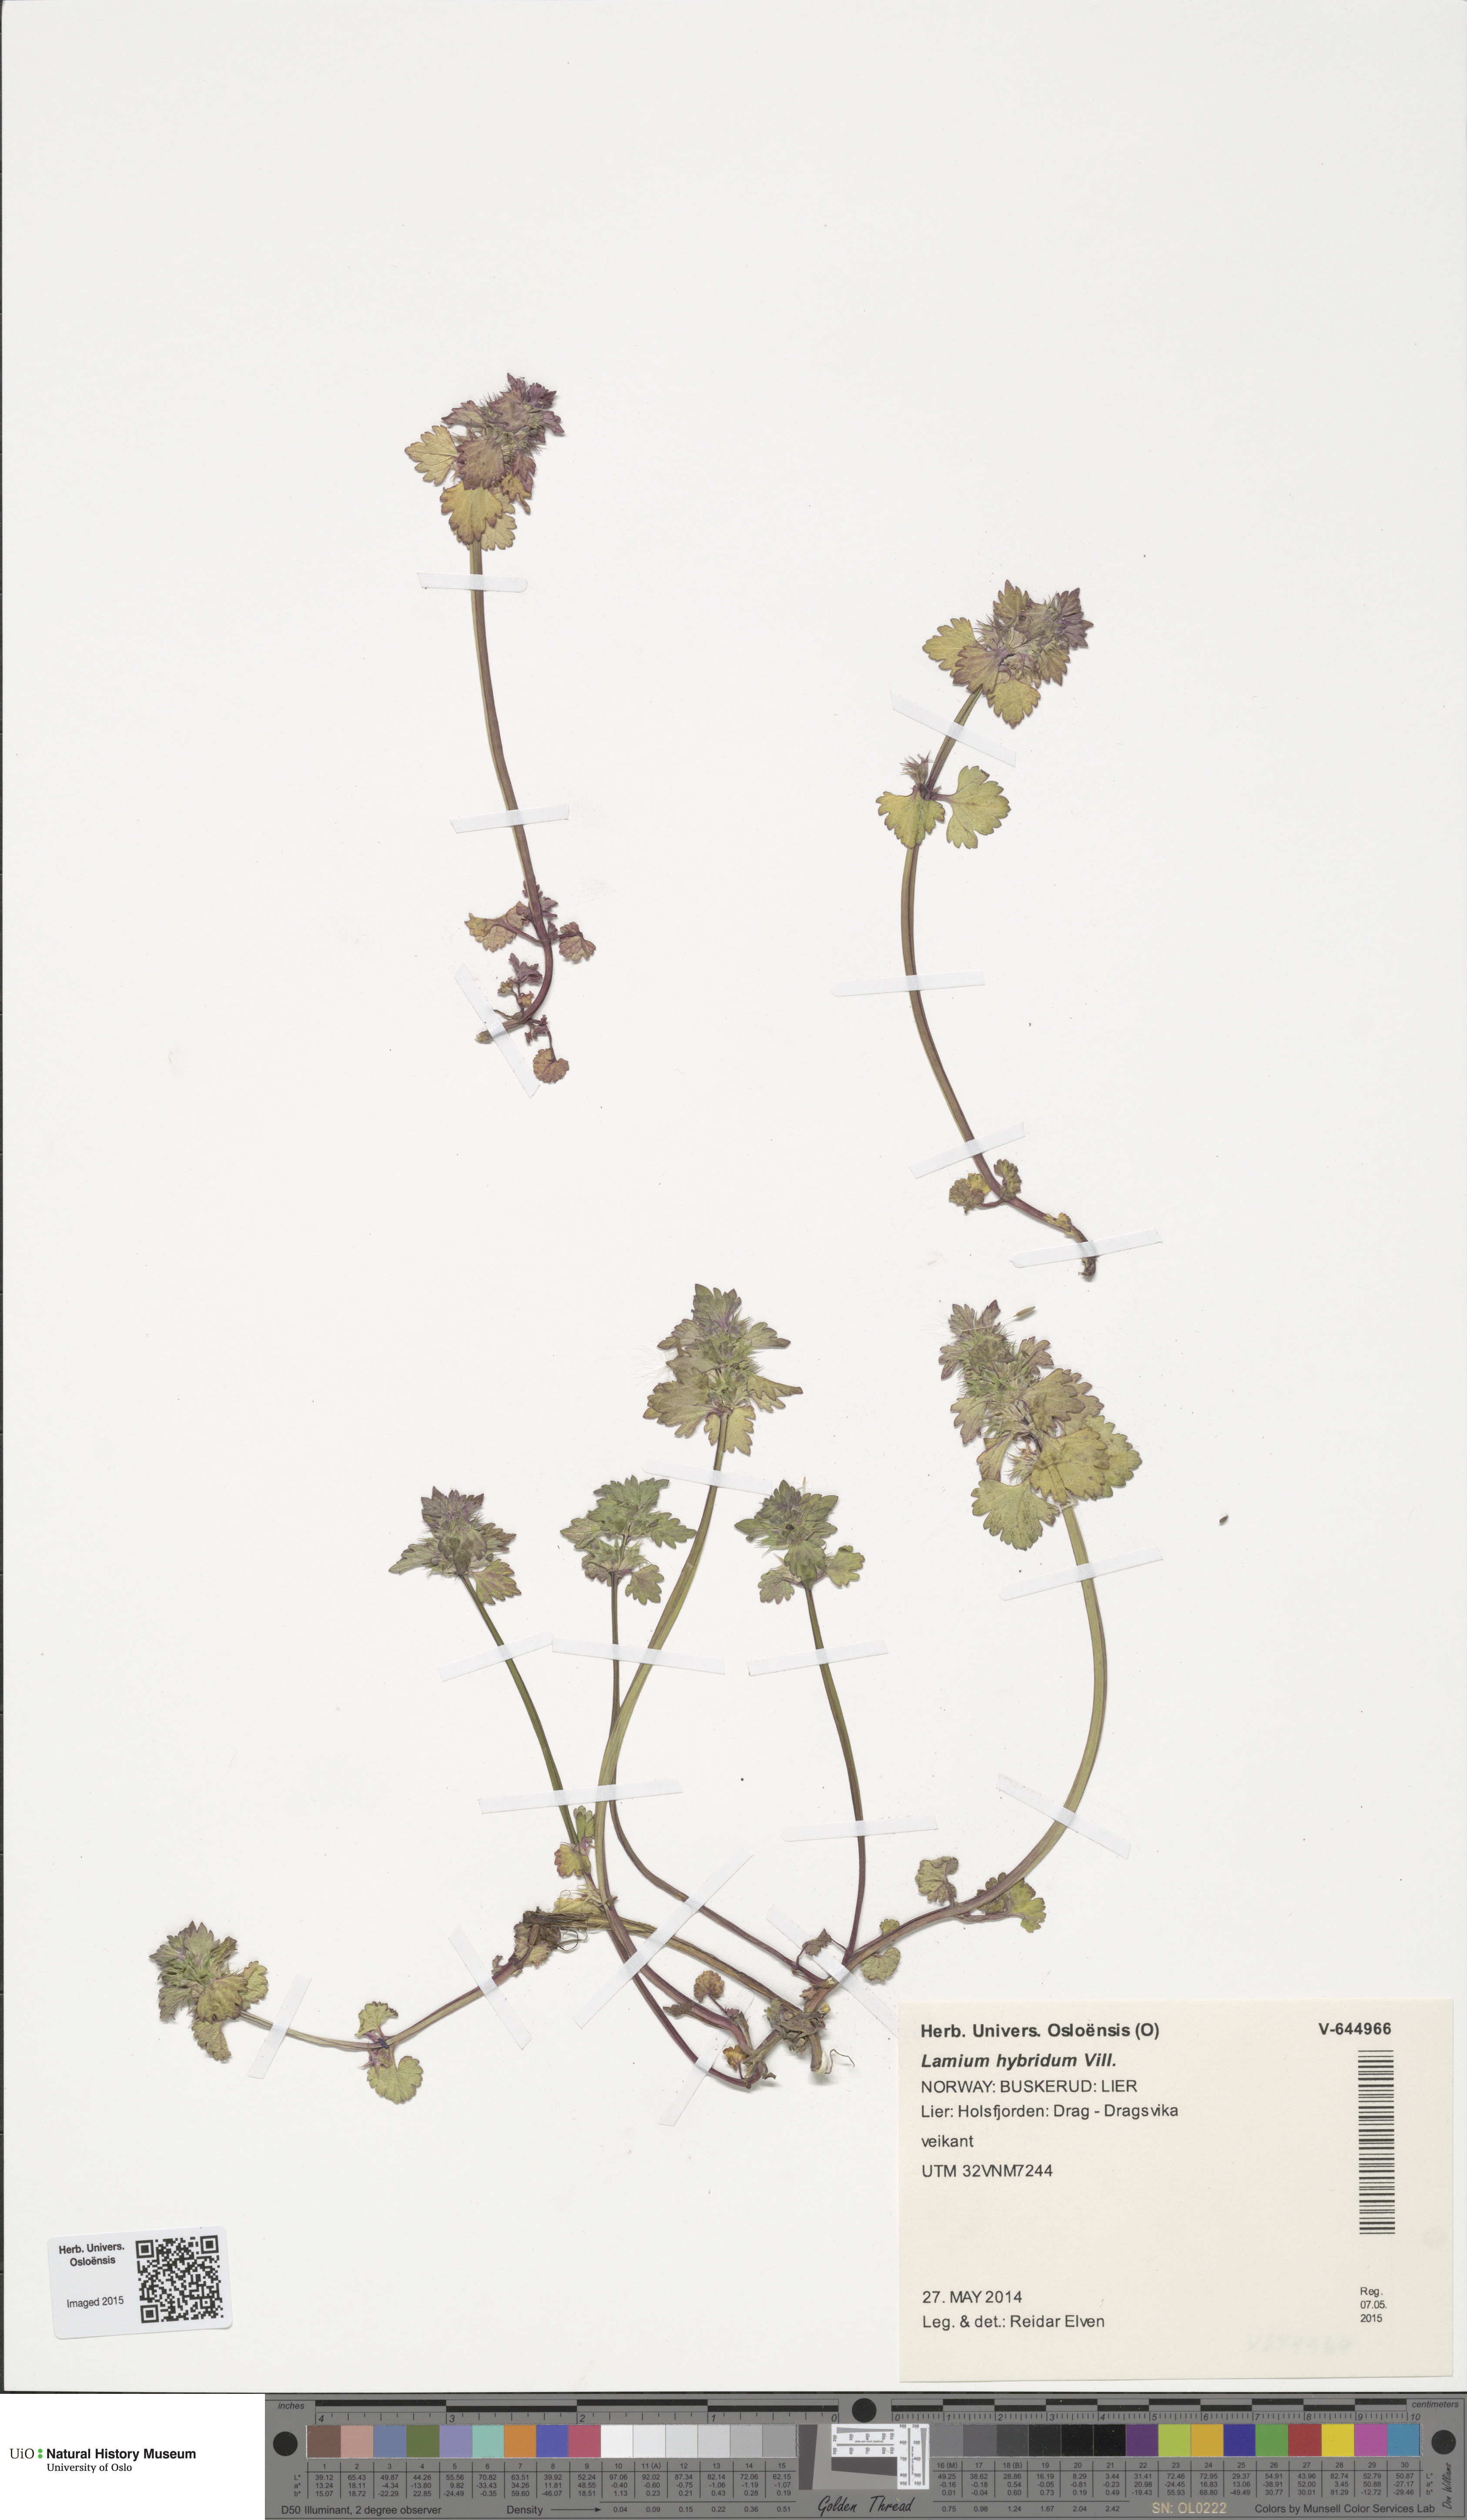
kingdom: Plantae
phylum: Tracheophyta
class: Magnoliopsida
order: Lamiales
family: Lamiaceae
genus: Lamium
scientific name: Lamium hybridum
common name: Cut-leaved dead-nettle
